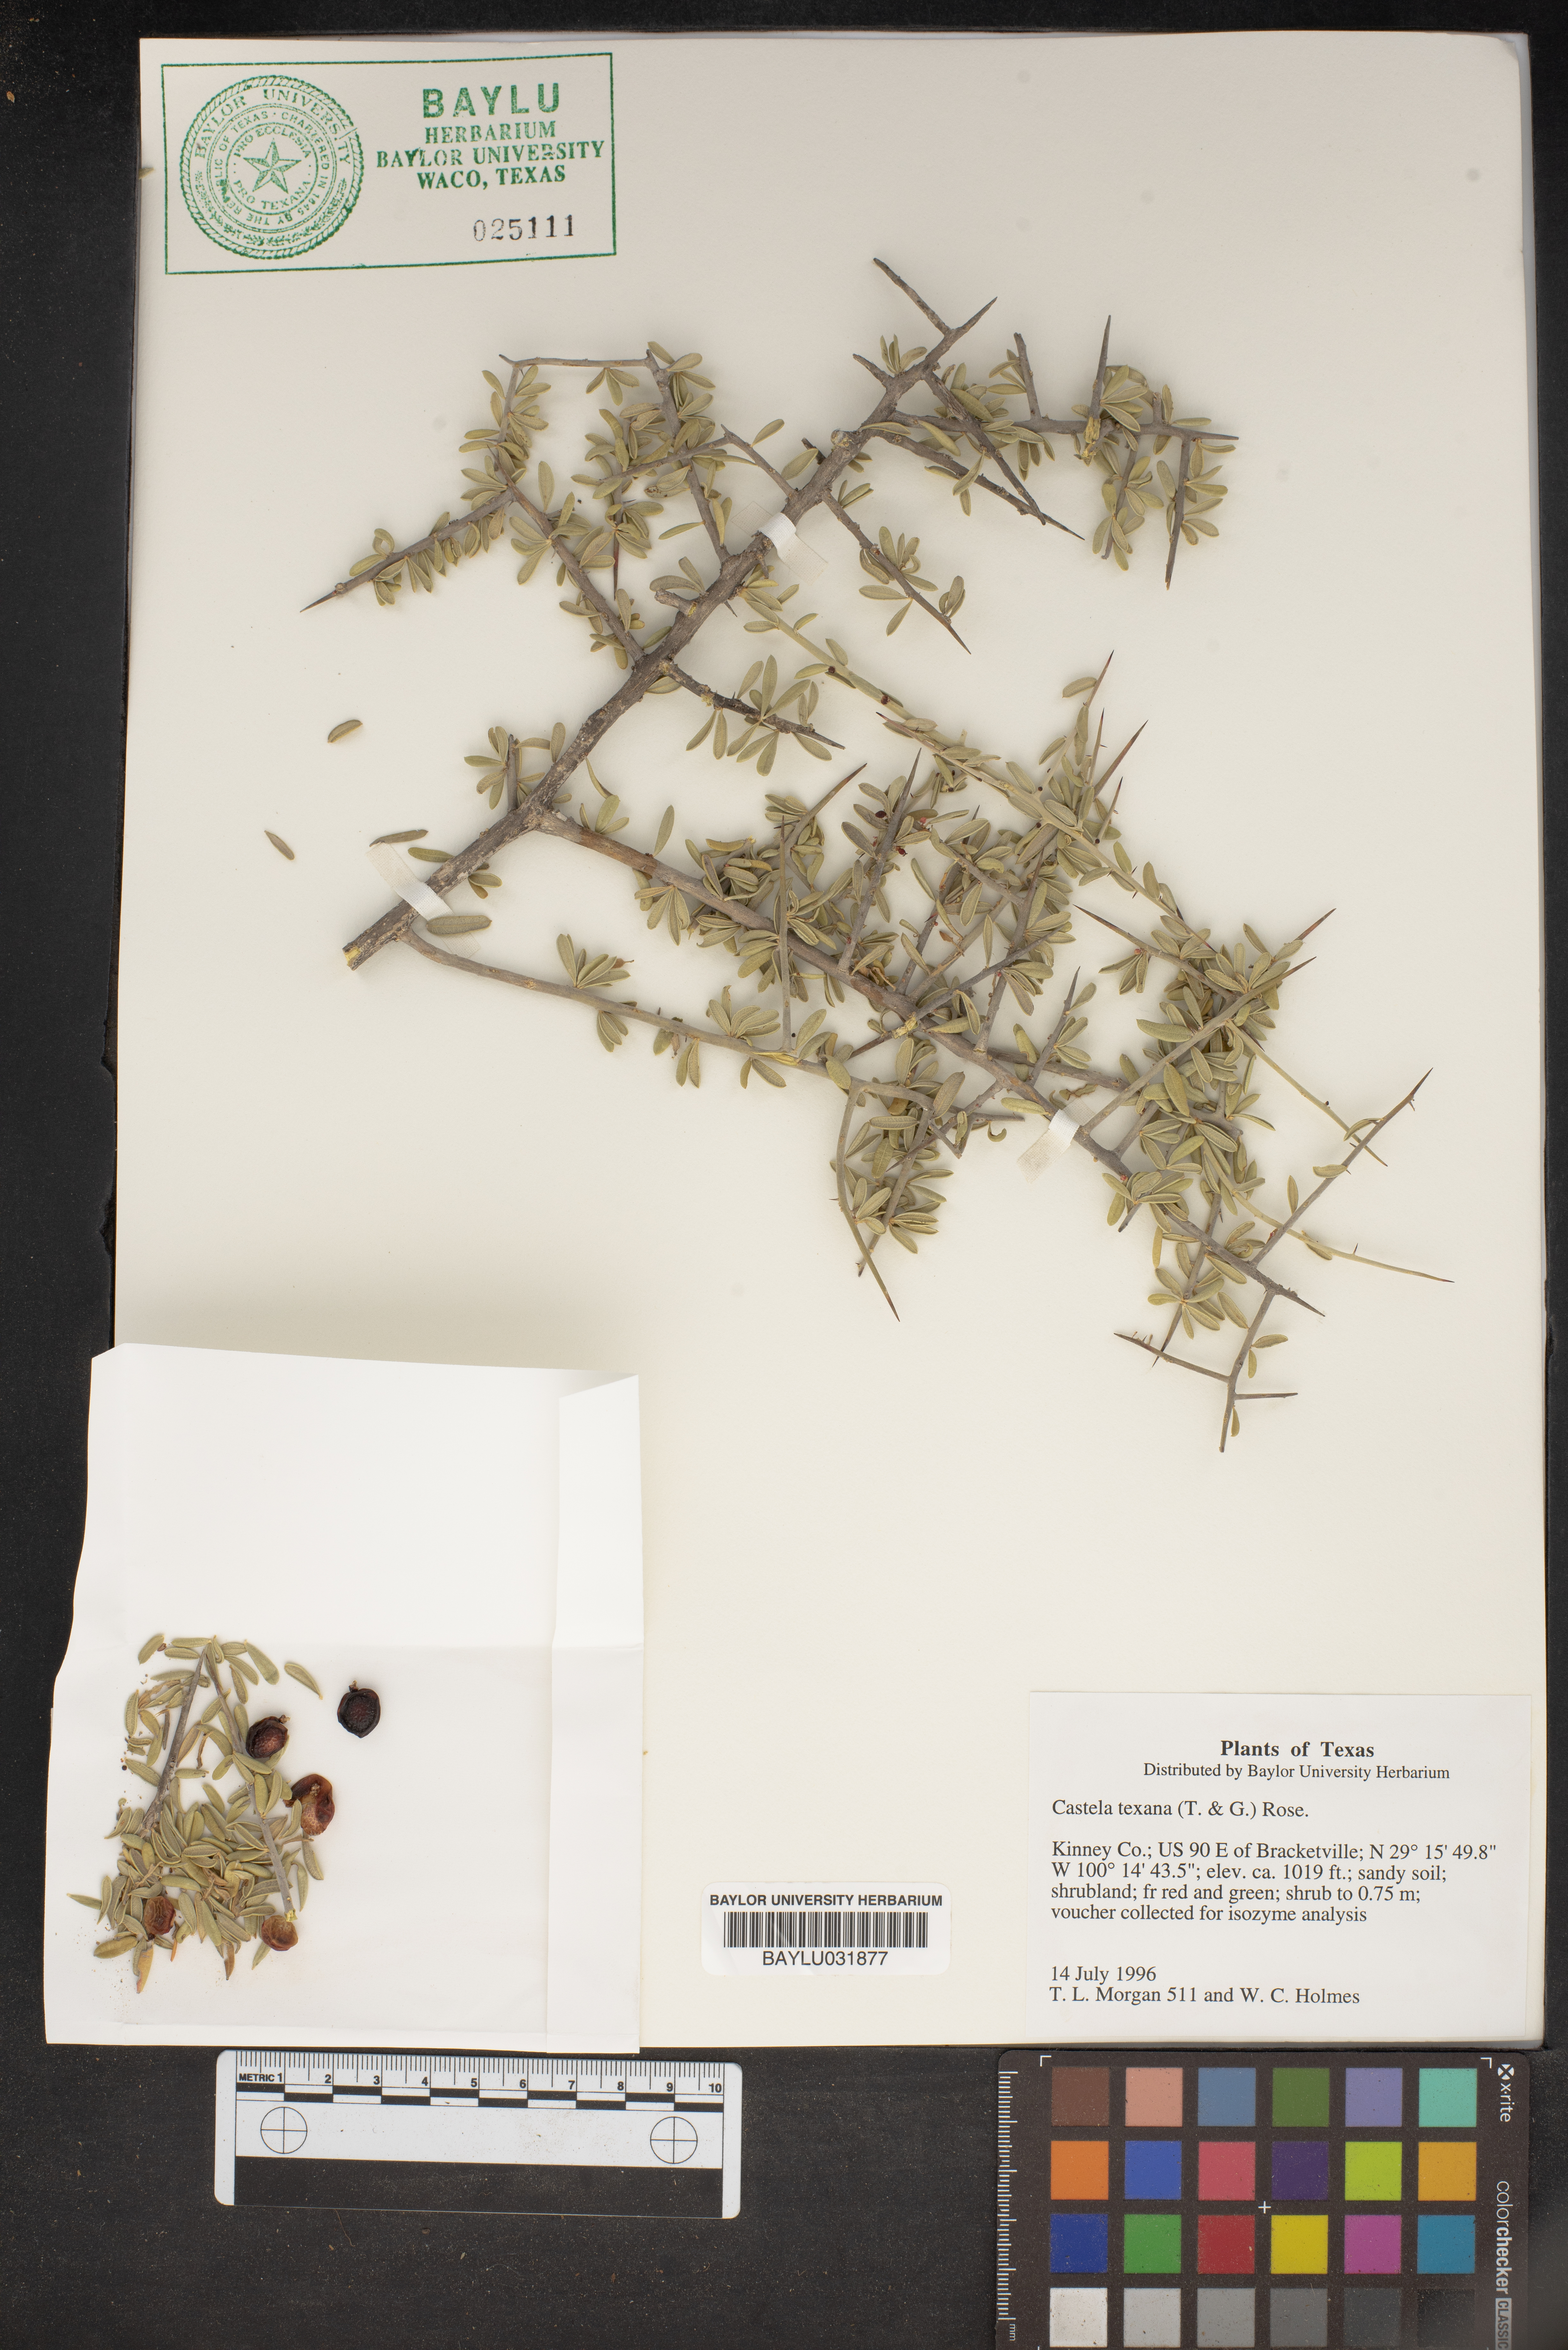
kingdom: Plantae
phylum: Tracheophyta
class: Magnoliopsida
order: Sapindales
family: Simaroubaceae
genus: Castela
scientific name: Castela tortuosa
